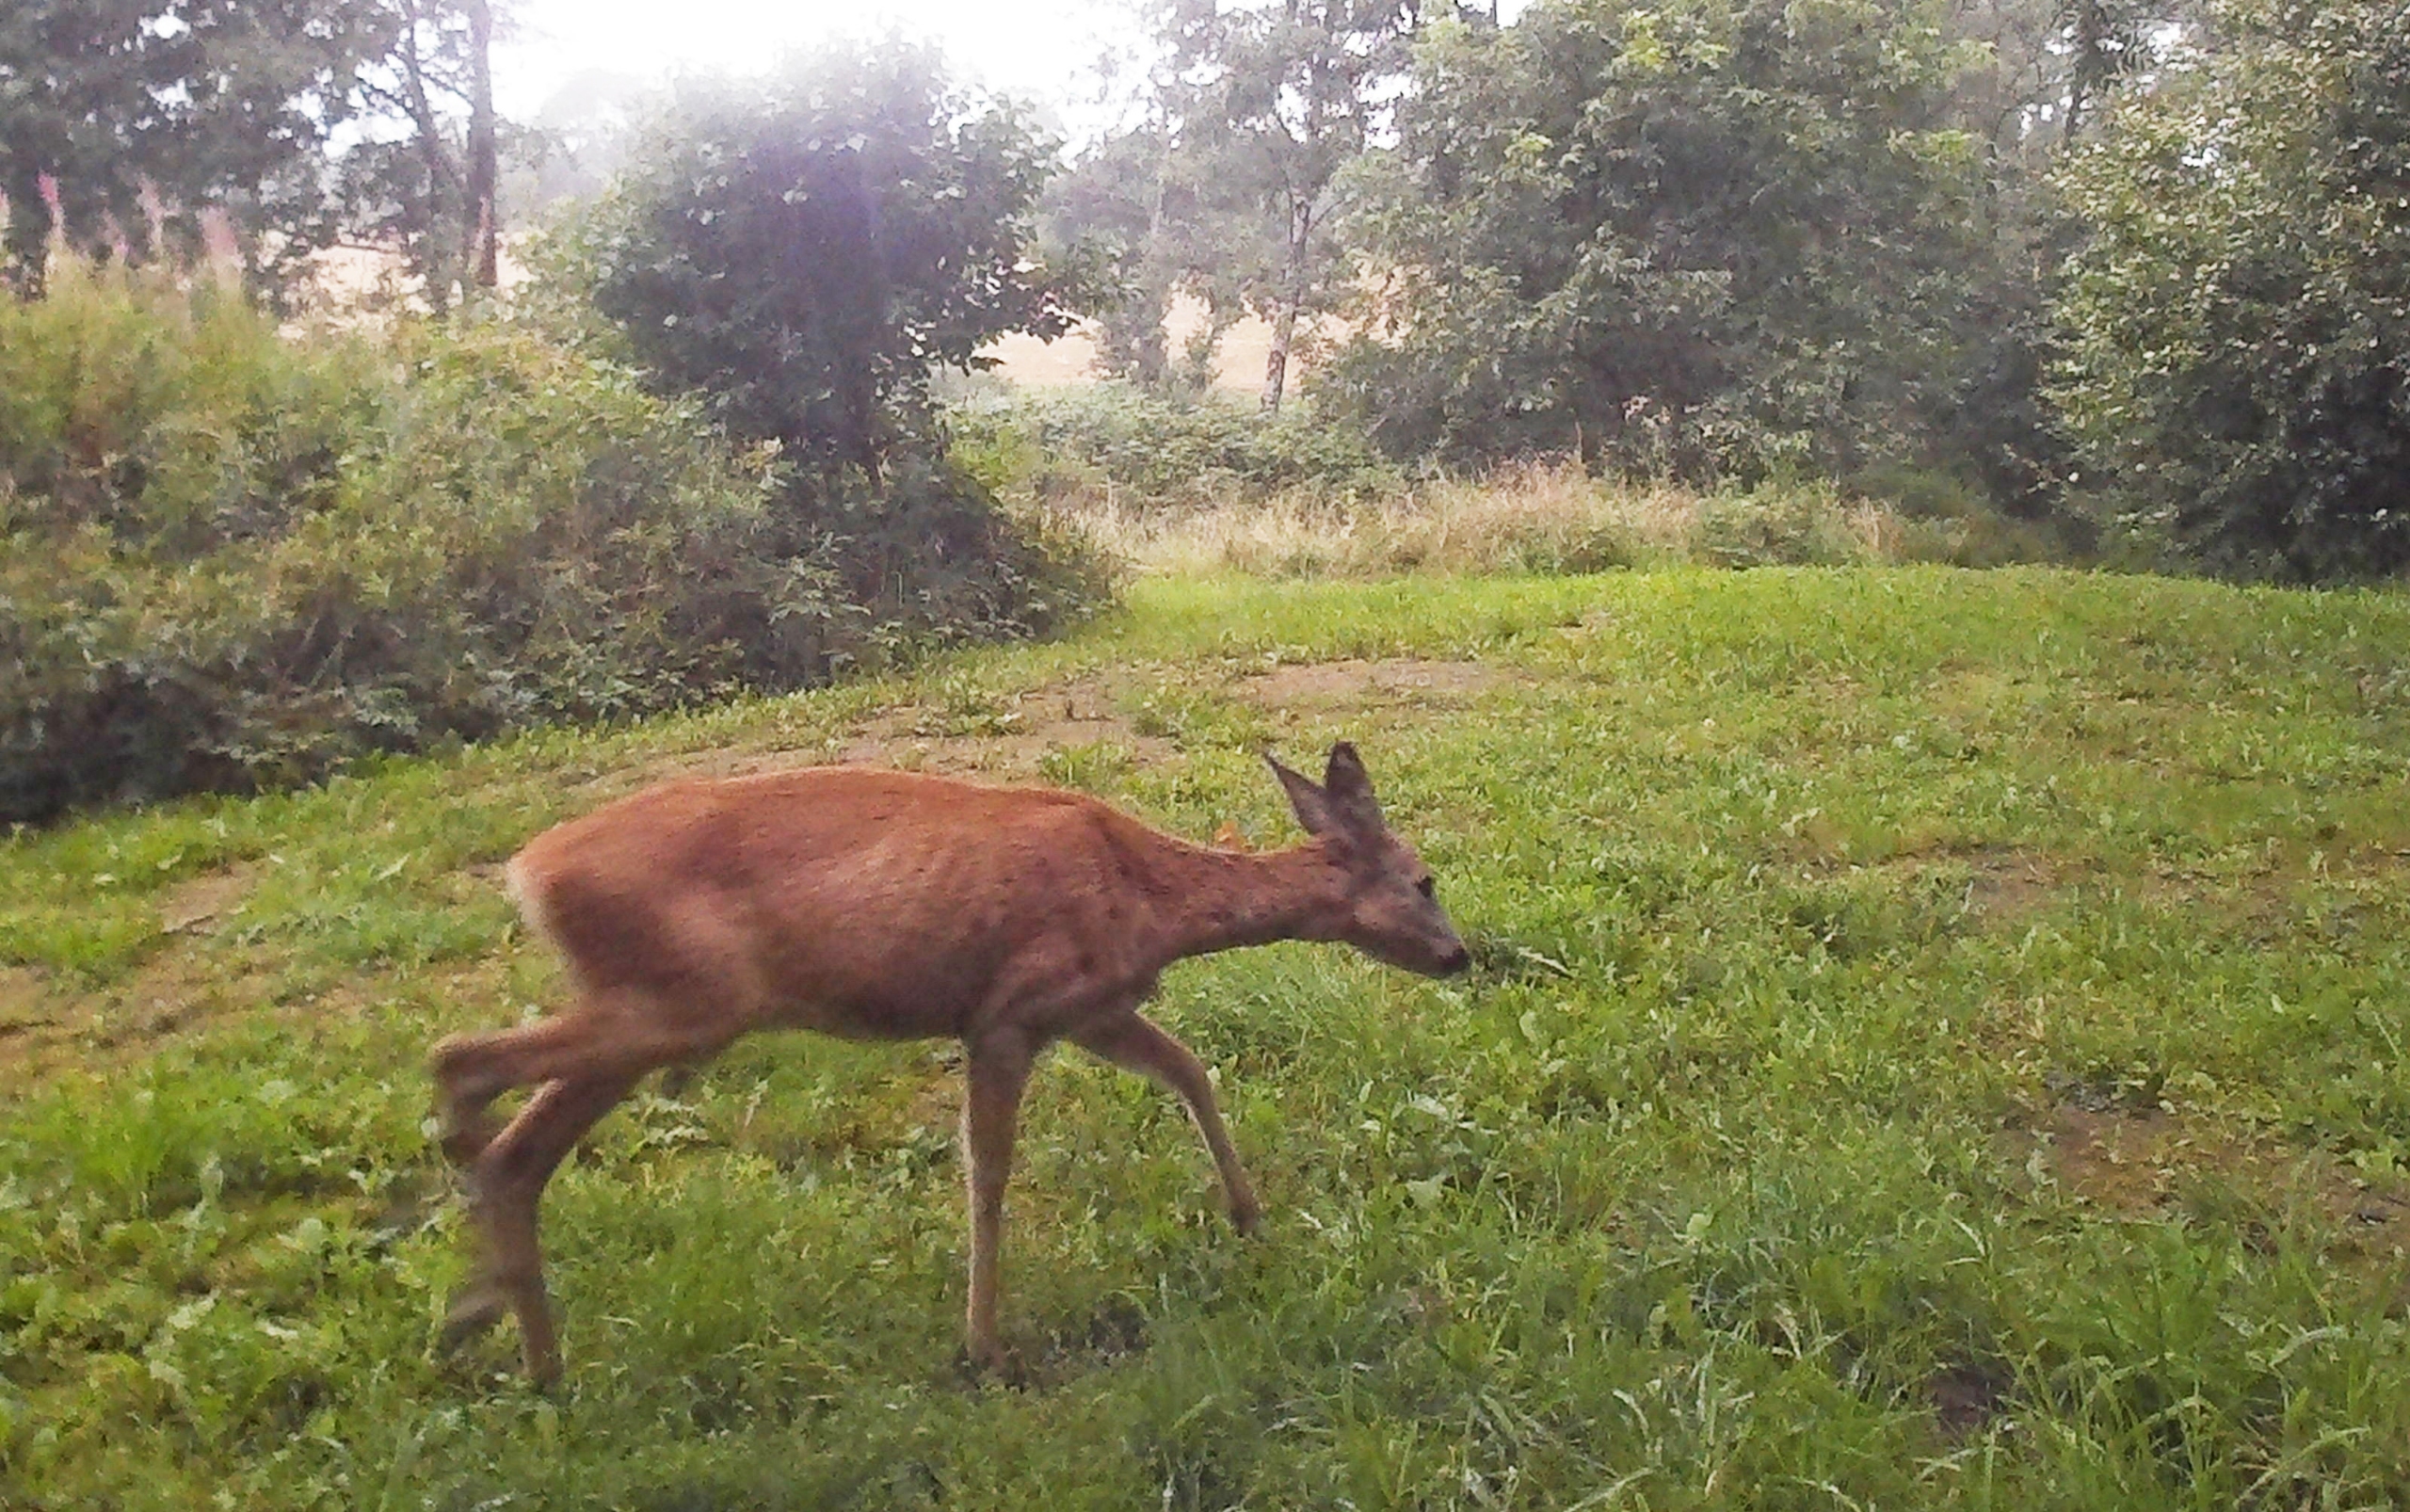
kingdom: Animalia
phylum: Chordata
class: Mammalia
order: Artiodactyla
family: Cervidae
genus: Capreolus
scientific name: Capreolus capreolus
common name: Rådyr
